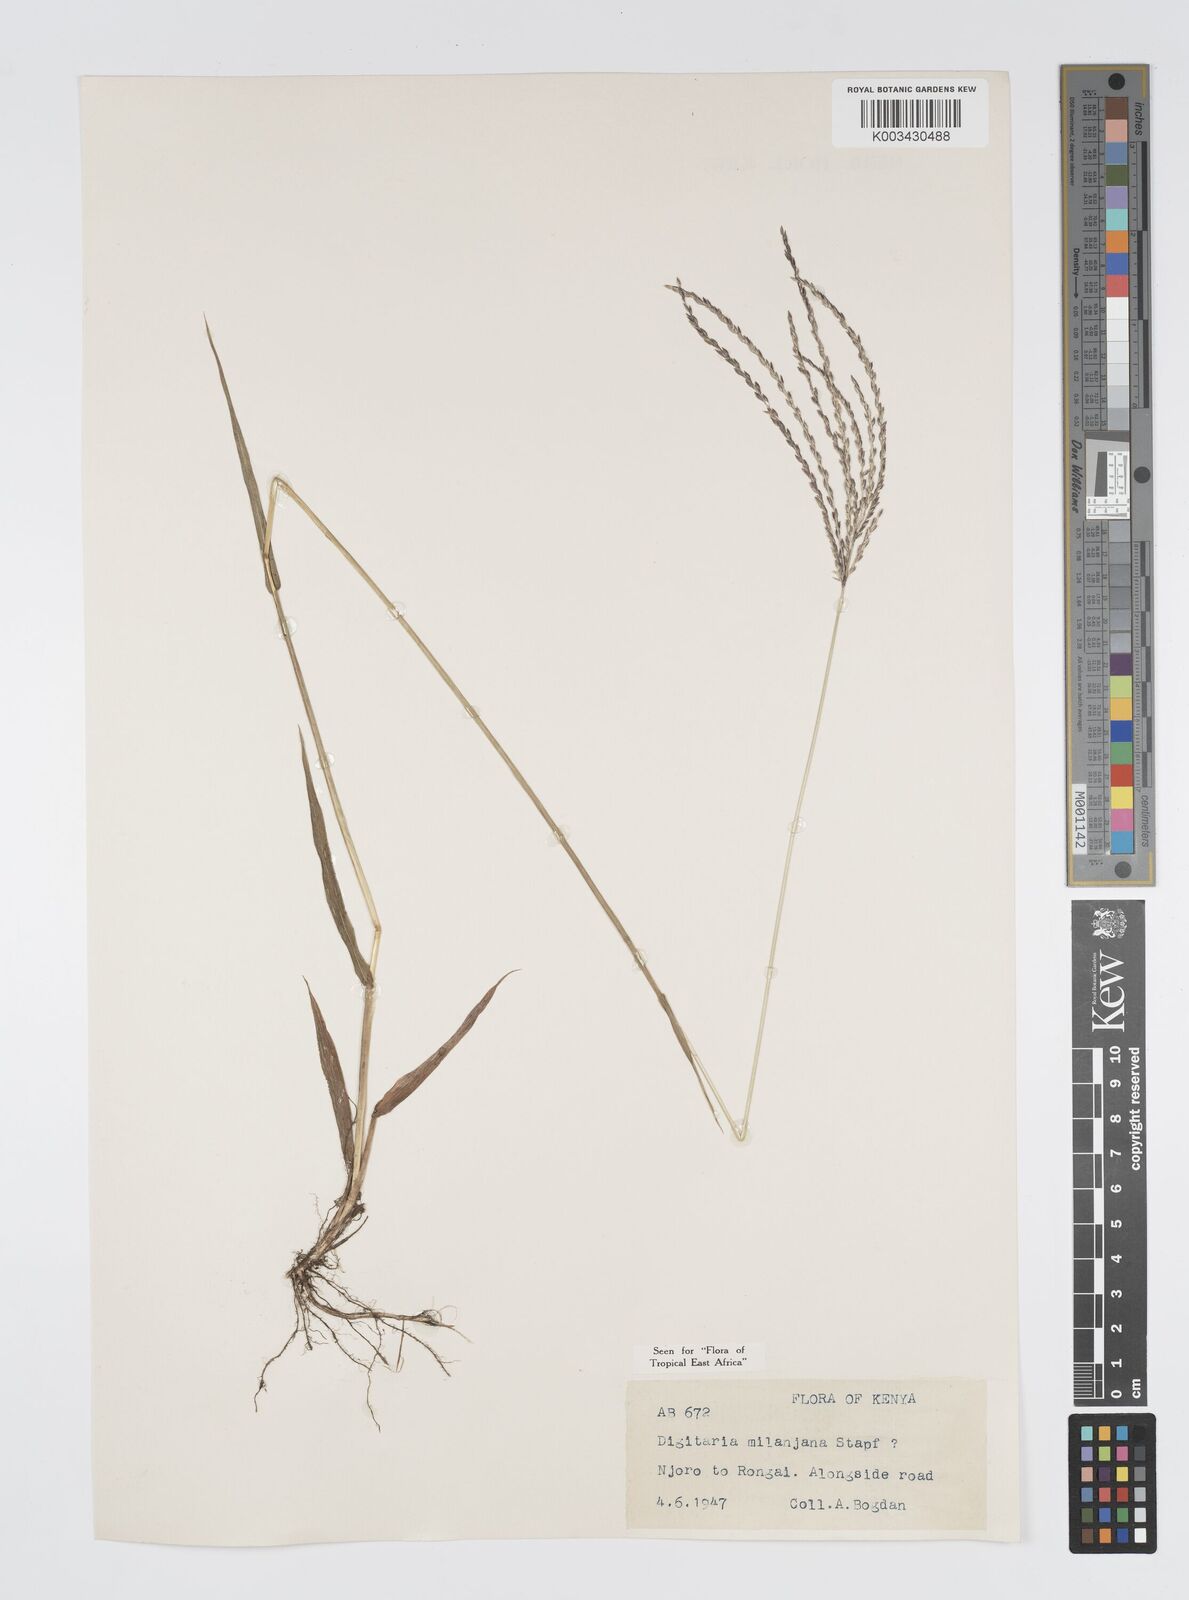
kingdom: Plantae
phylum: Tracheophyta
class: Liliopsida
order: Poales
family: Poaceae
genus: Digitaria
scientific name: Digitaria milanjiana
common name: Madagascar crabgrass
